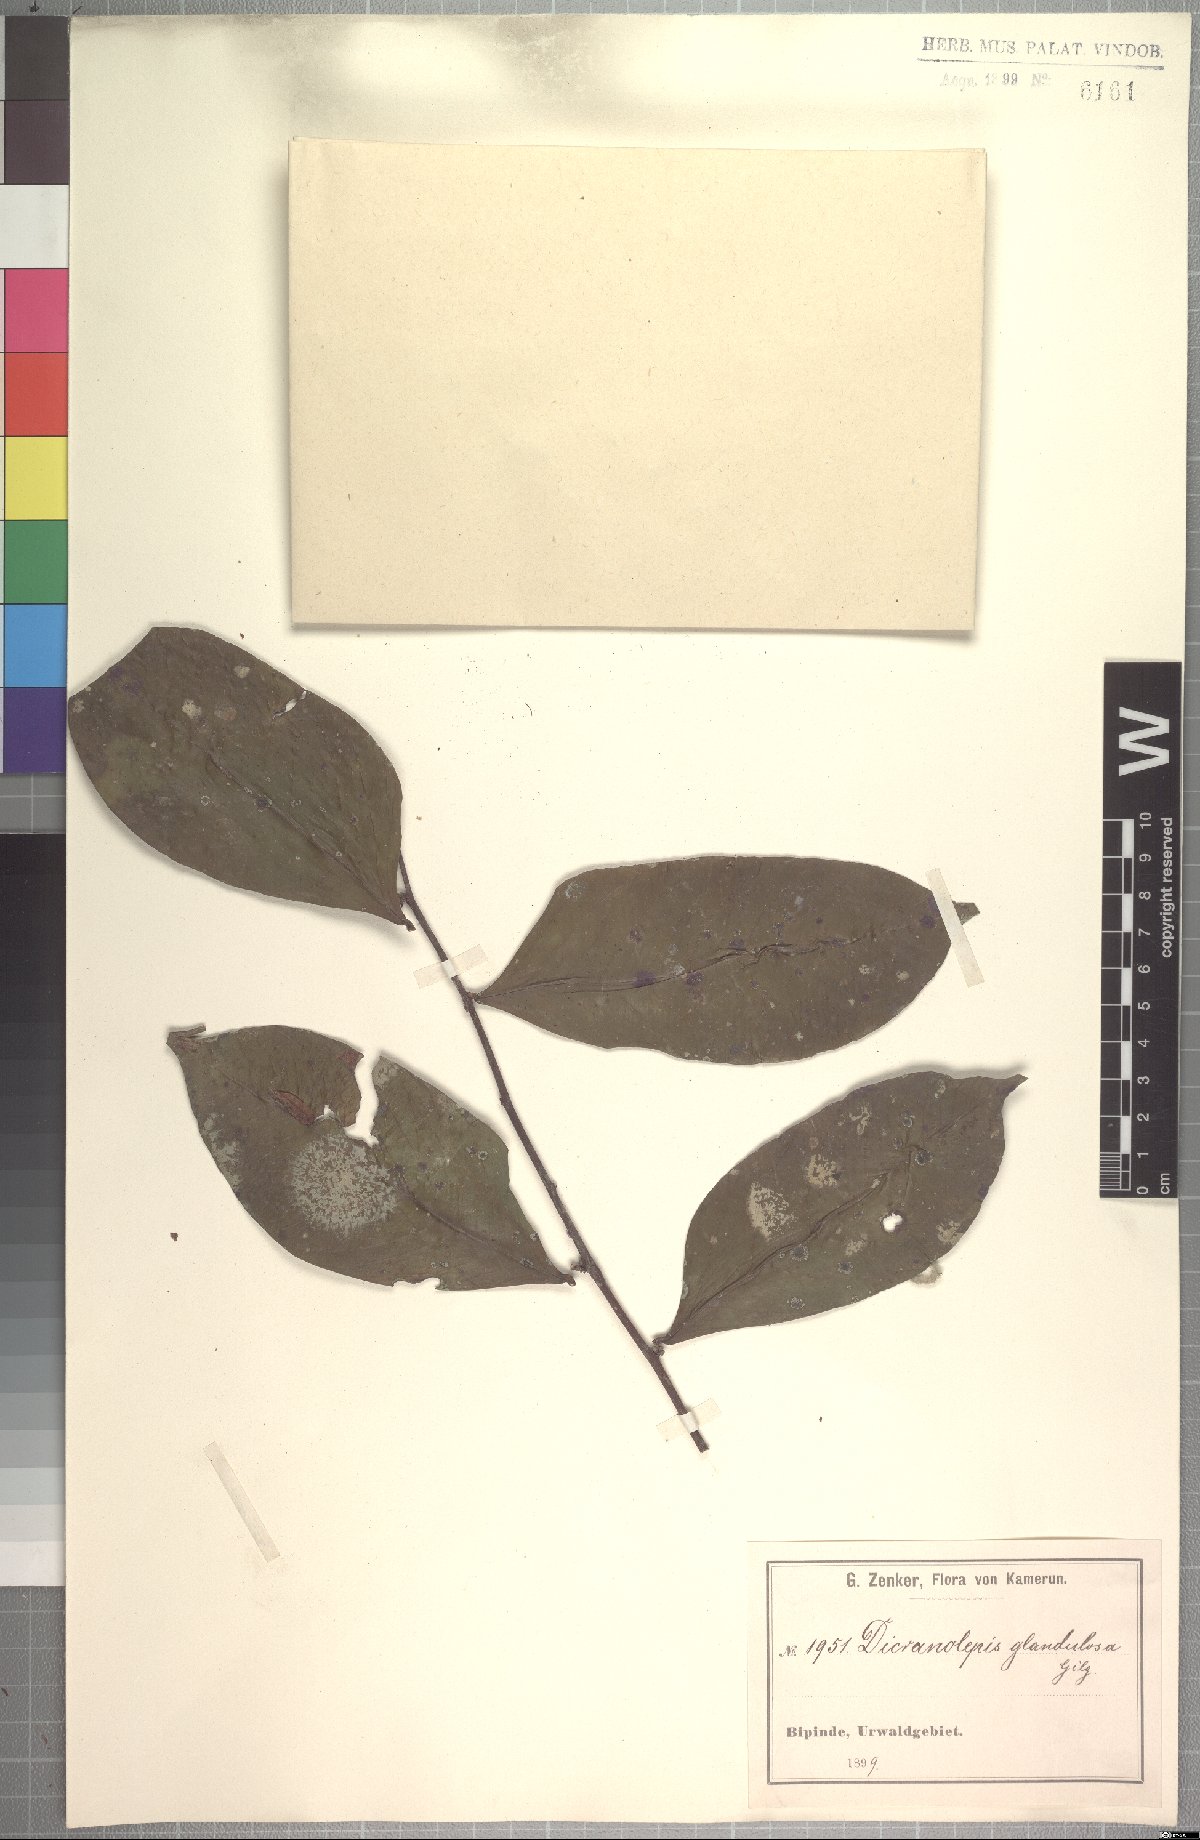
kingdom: Plantae
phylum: Tracheophyta
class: Magnoliopsida
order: Malvales
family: Thymelaeaceae
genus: Dicranolepis
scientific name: Dicranolepis glandulosa
